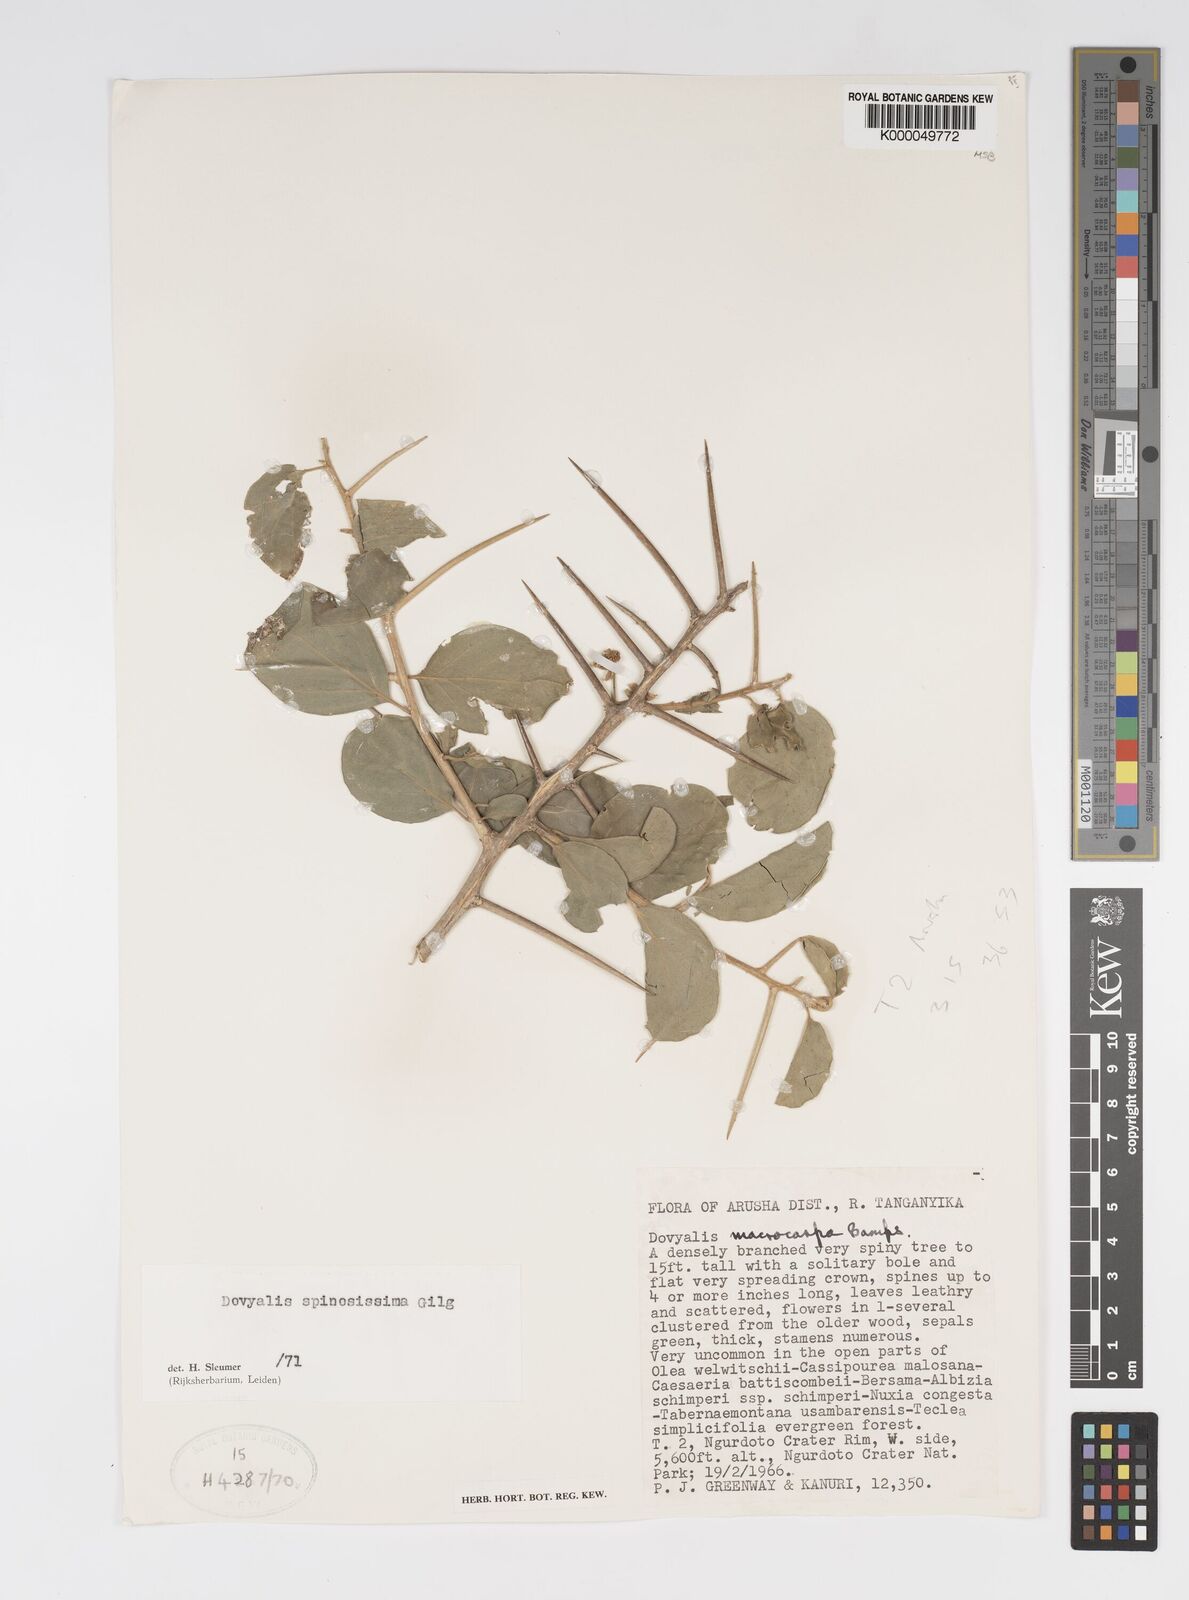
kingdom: Plantae
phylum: Tracheophyta
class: Magnoliopsida
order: Malpighiales
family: Salicaceae
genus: Dovyalis
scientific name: Dovyalis spinosissima
